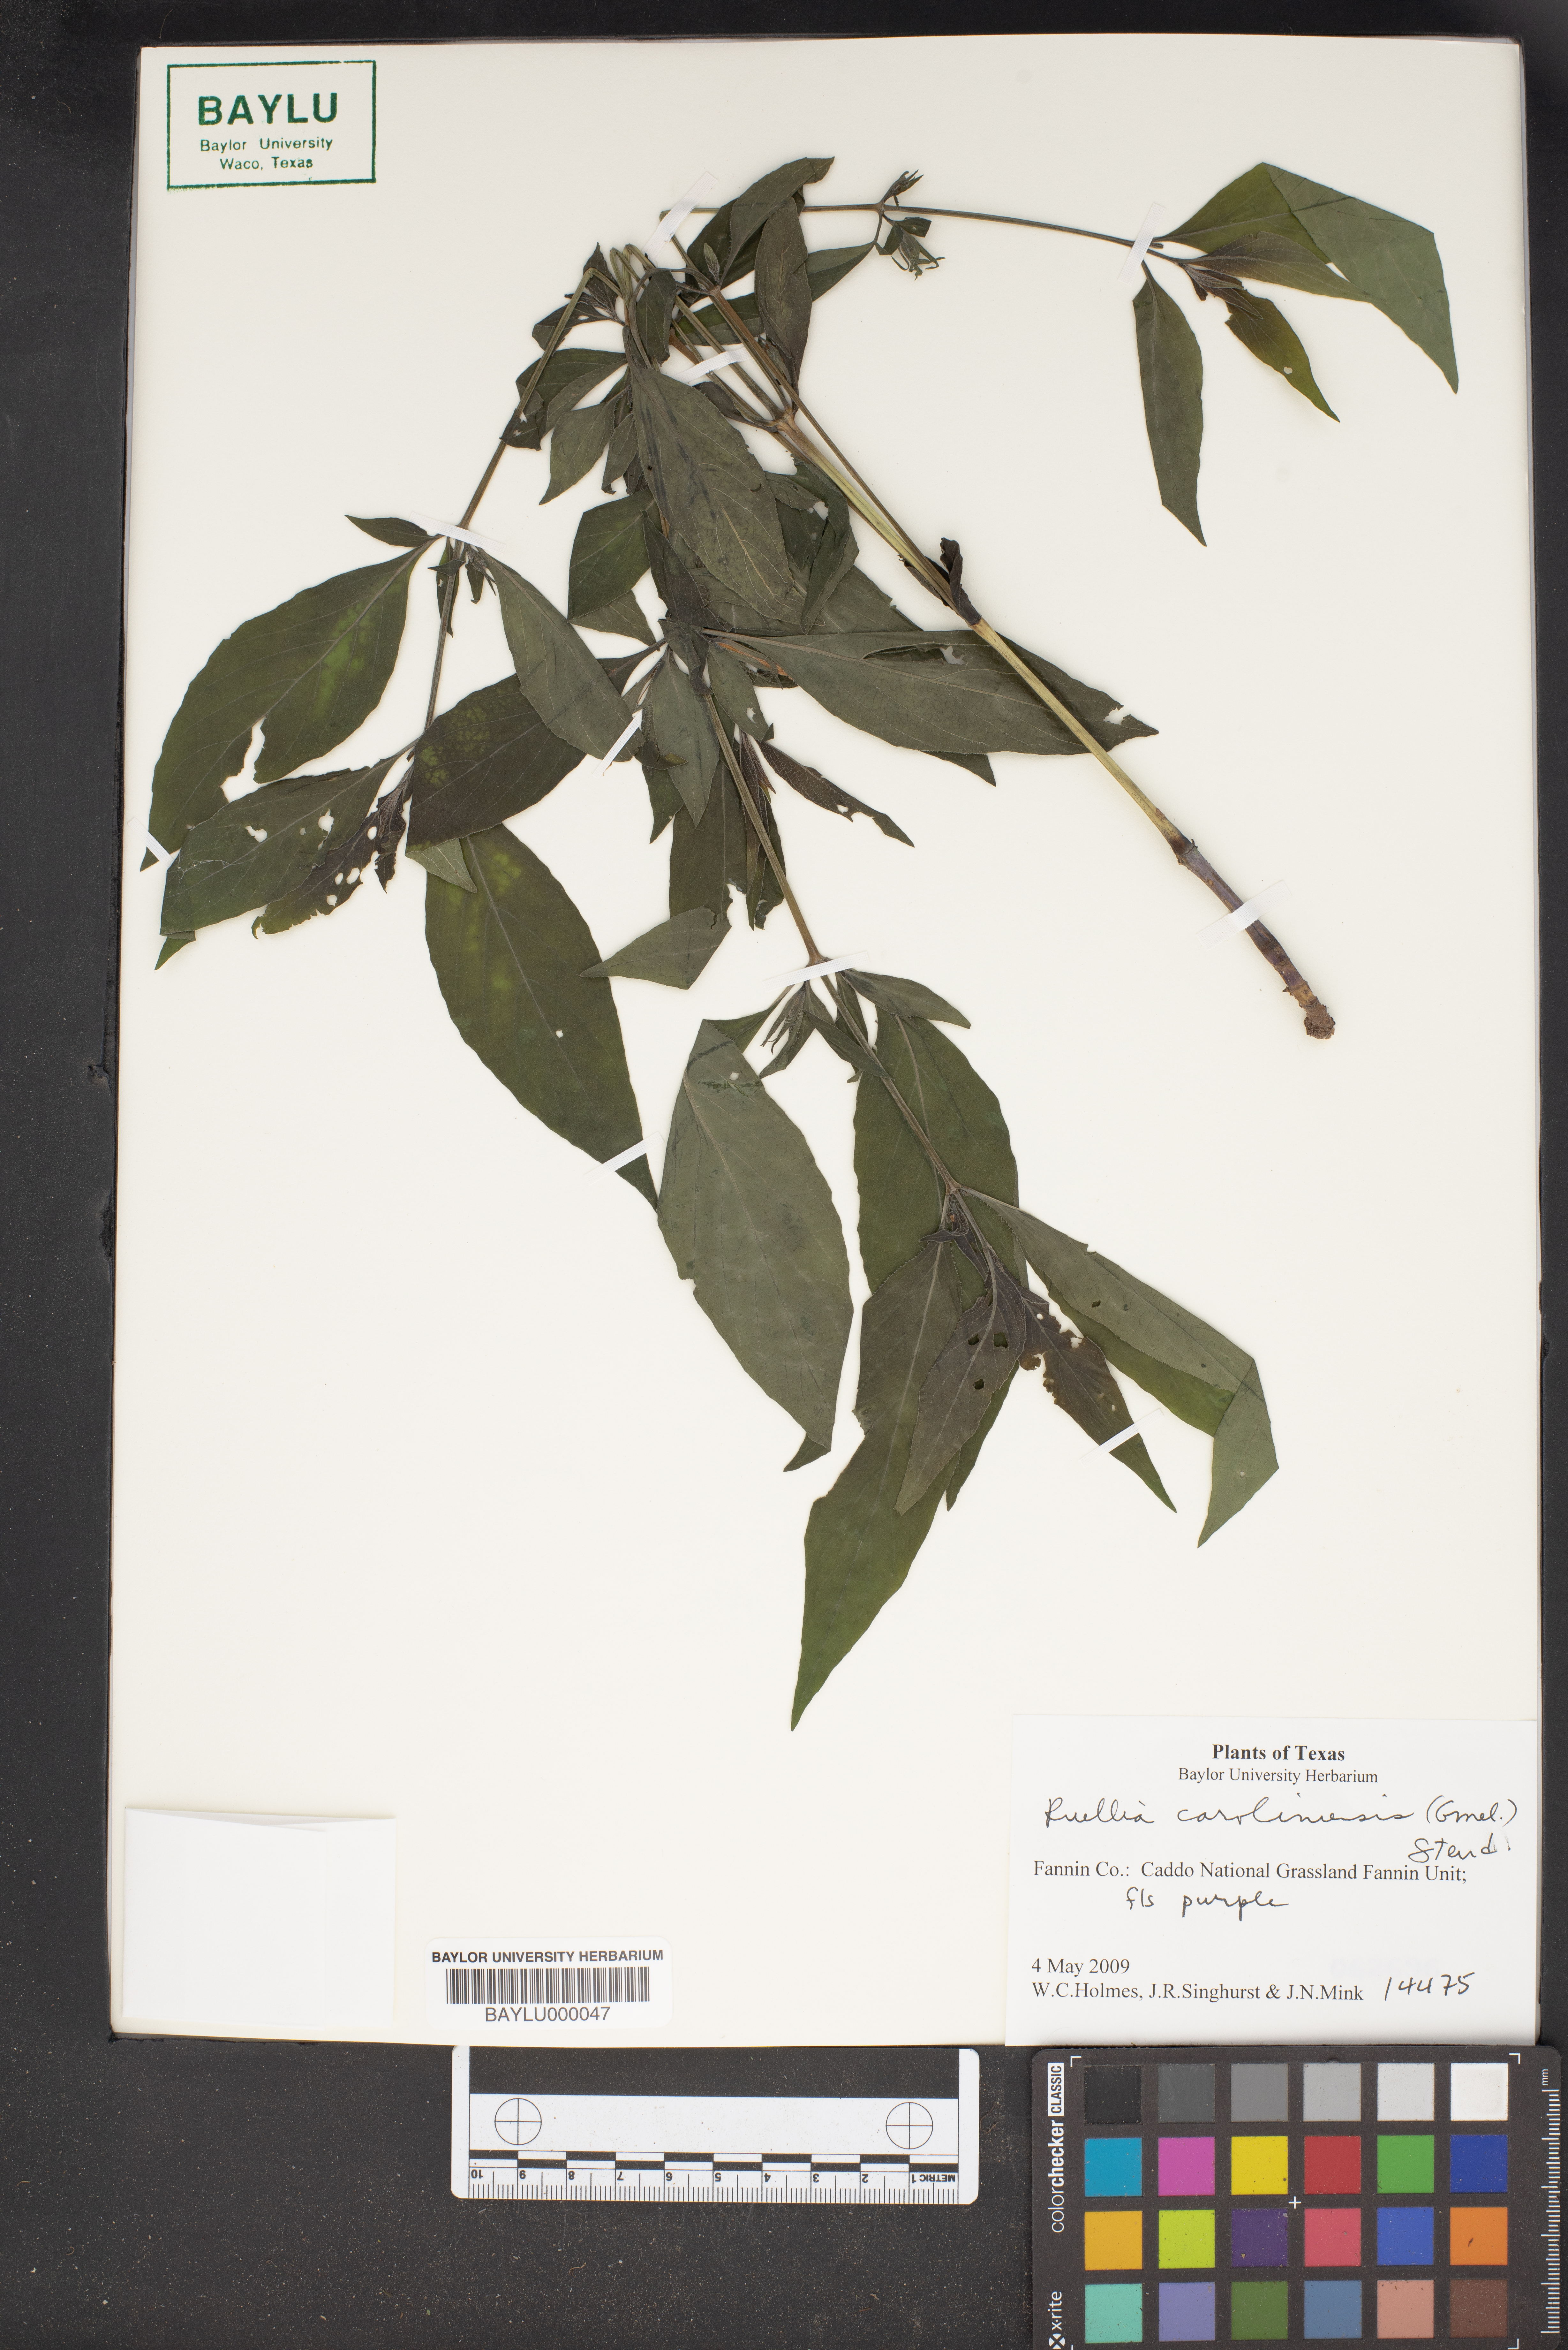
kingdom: Plantae
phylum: Tracheophyta
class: Magnoliopsida
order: Lamiales
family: Acanthaceae
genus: Ruellia
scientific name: Ruellia caroliniensis
